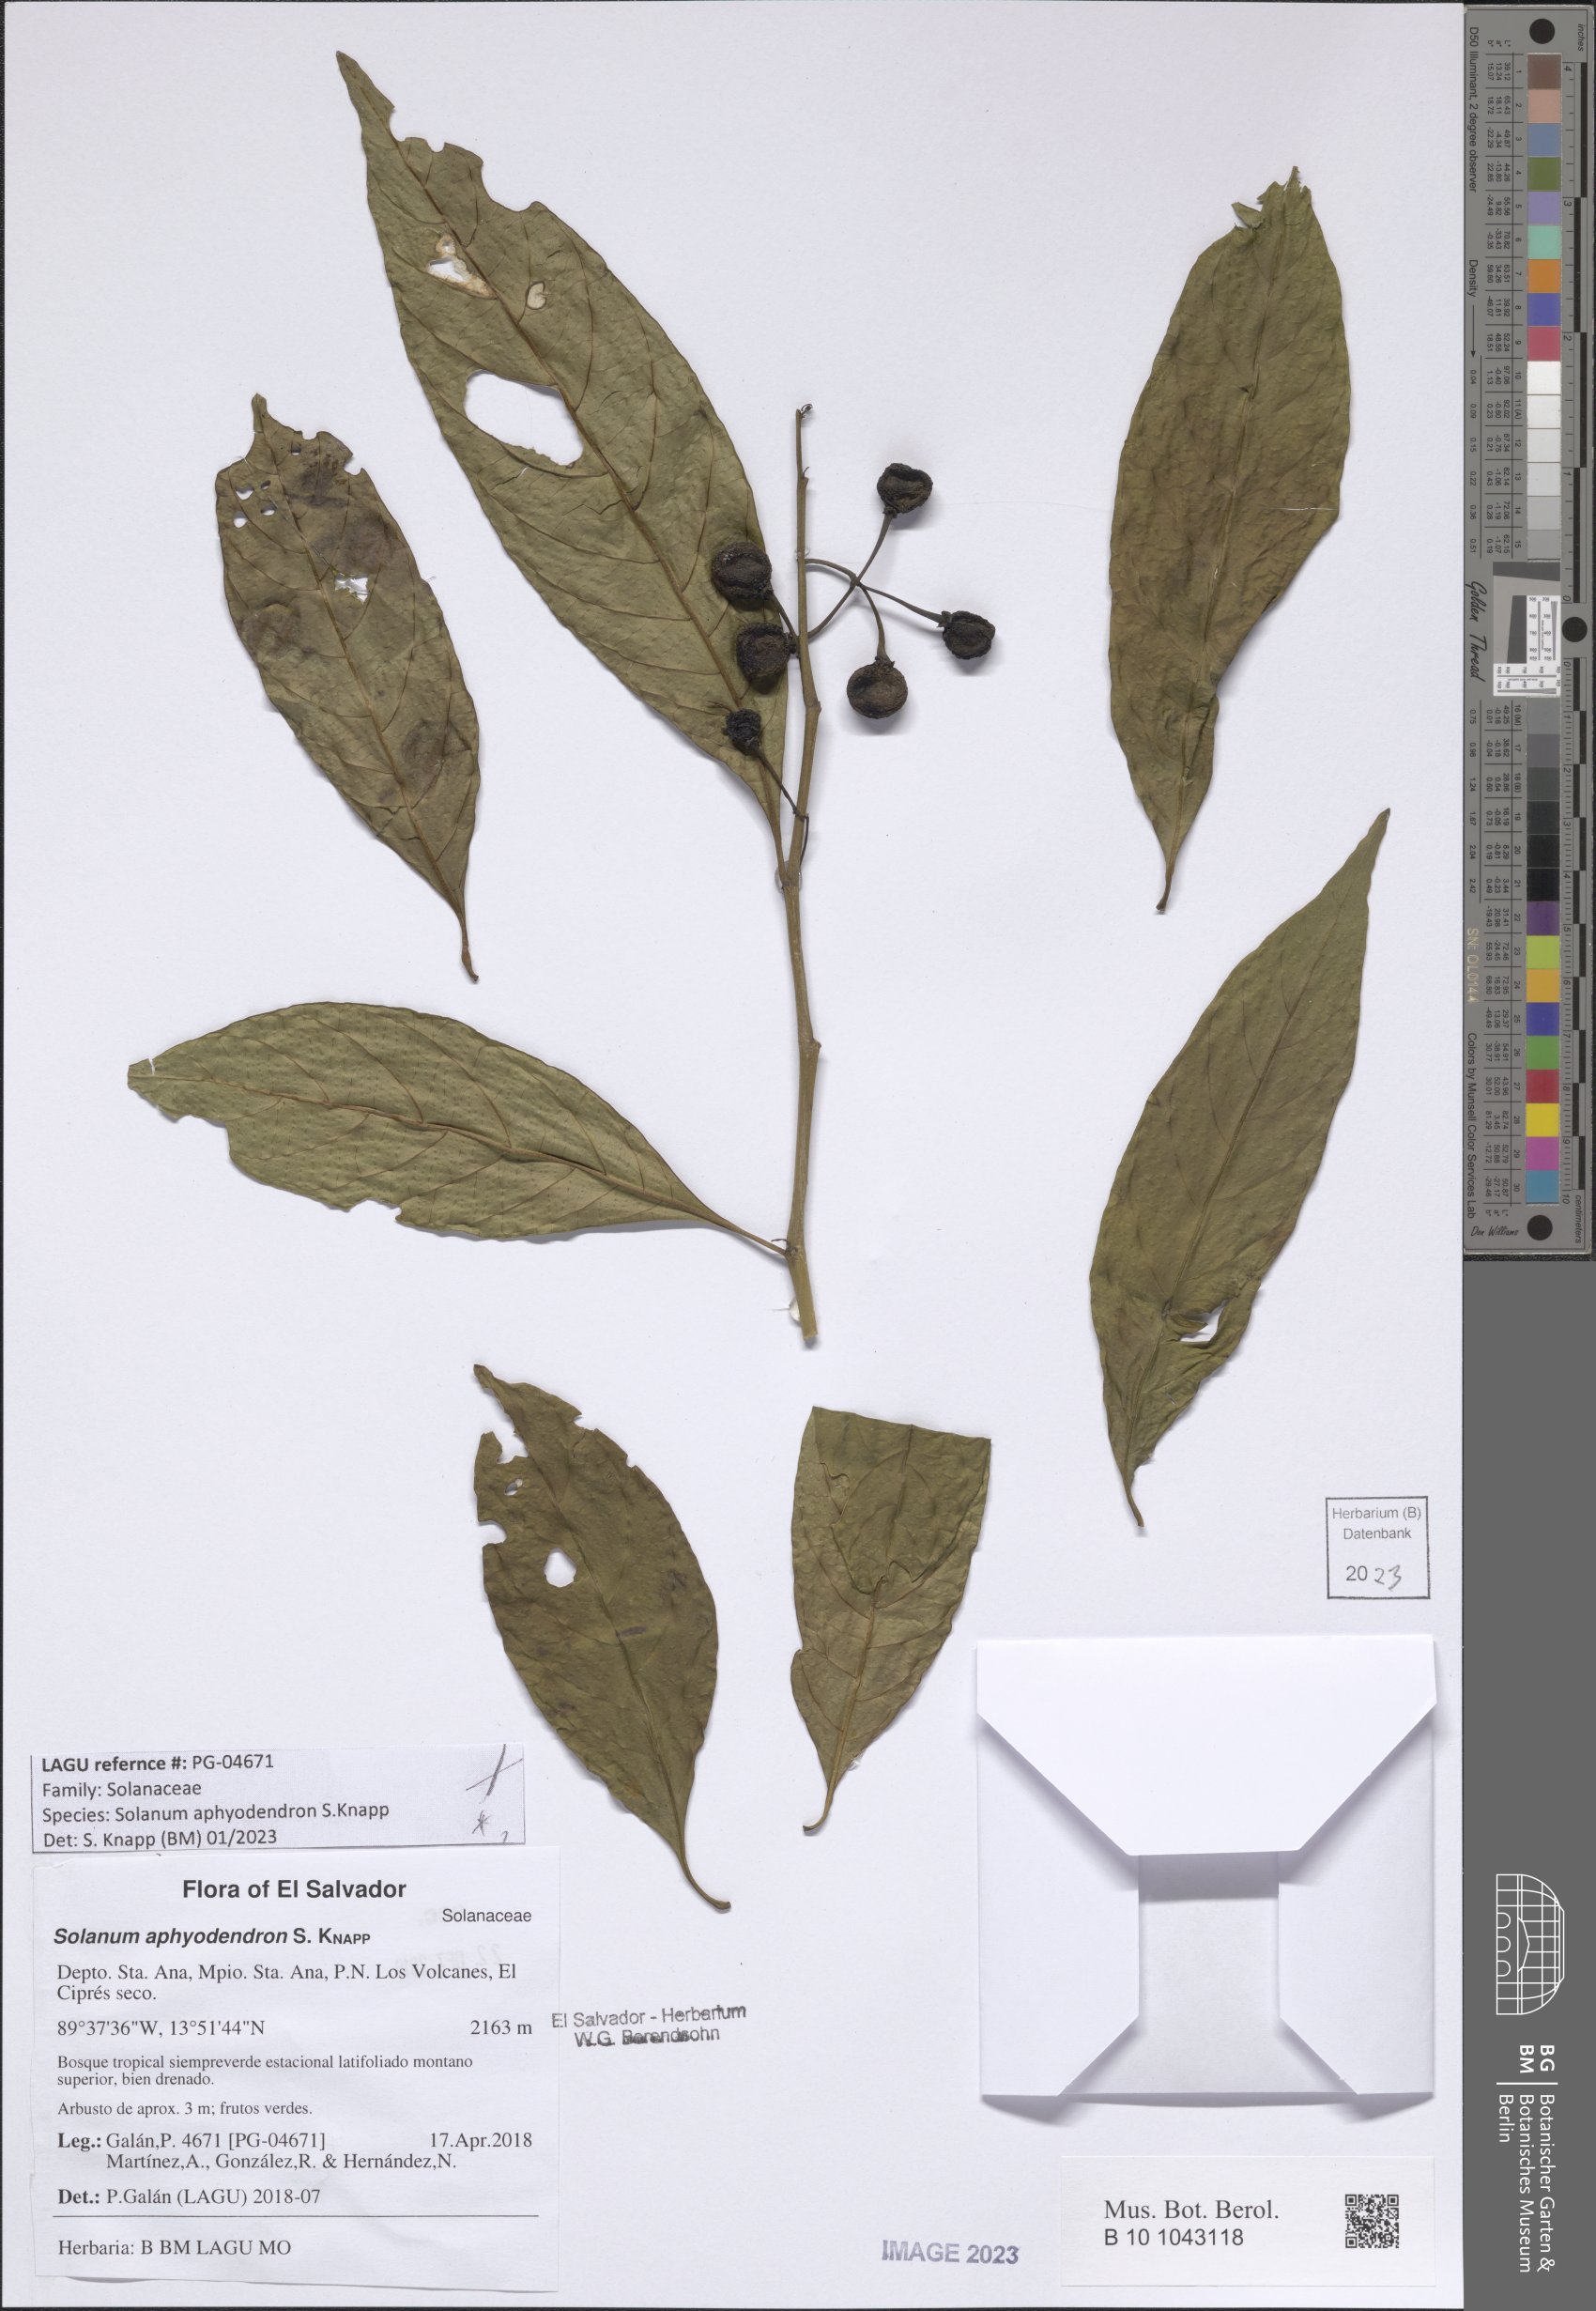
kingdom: Plantae
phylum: Tracheophyta
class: Magnoliopsida
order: Solanales
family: Solanaceae
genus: Solanum
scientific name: Solanum aphyodendron
